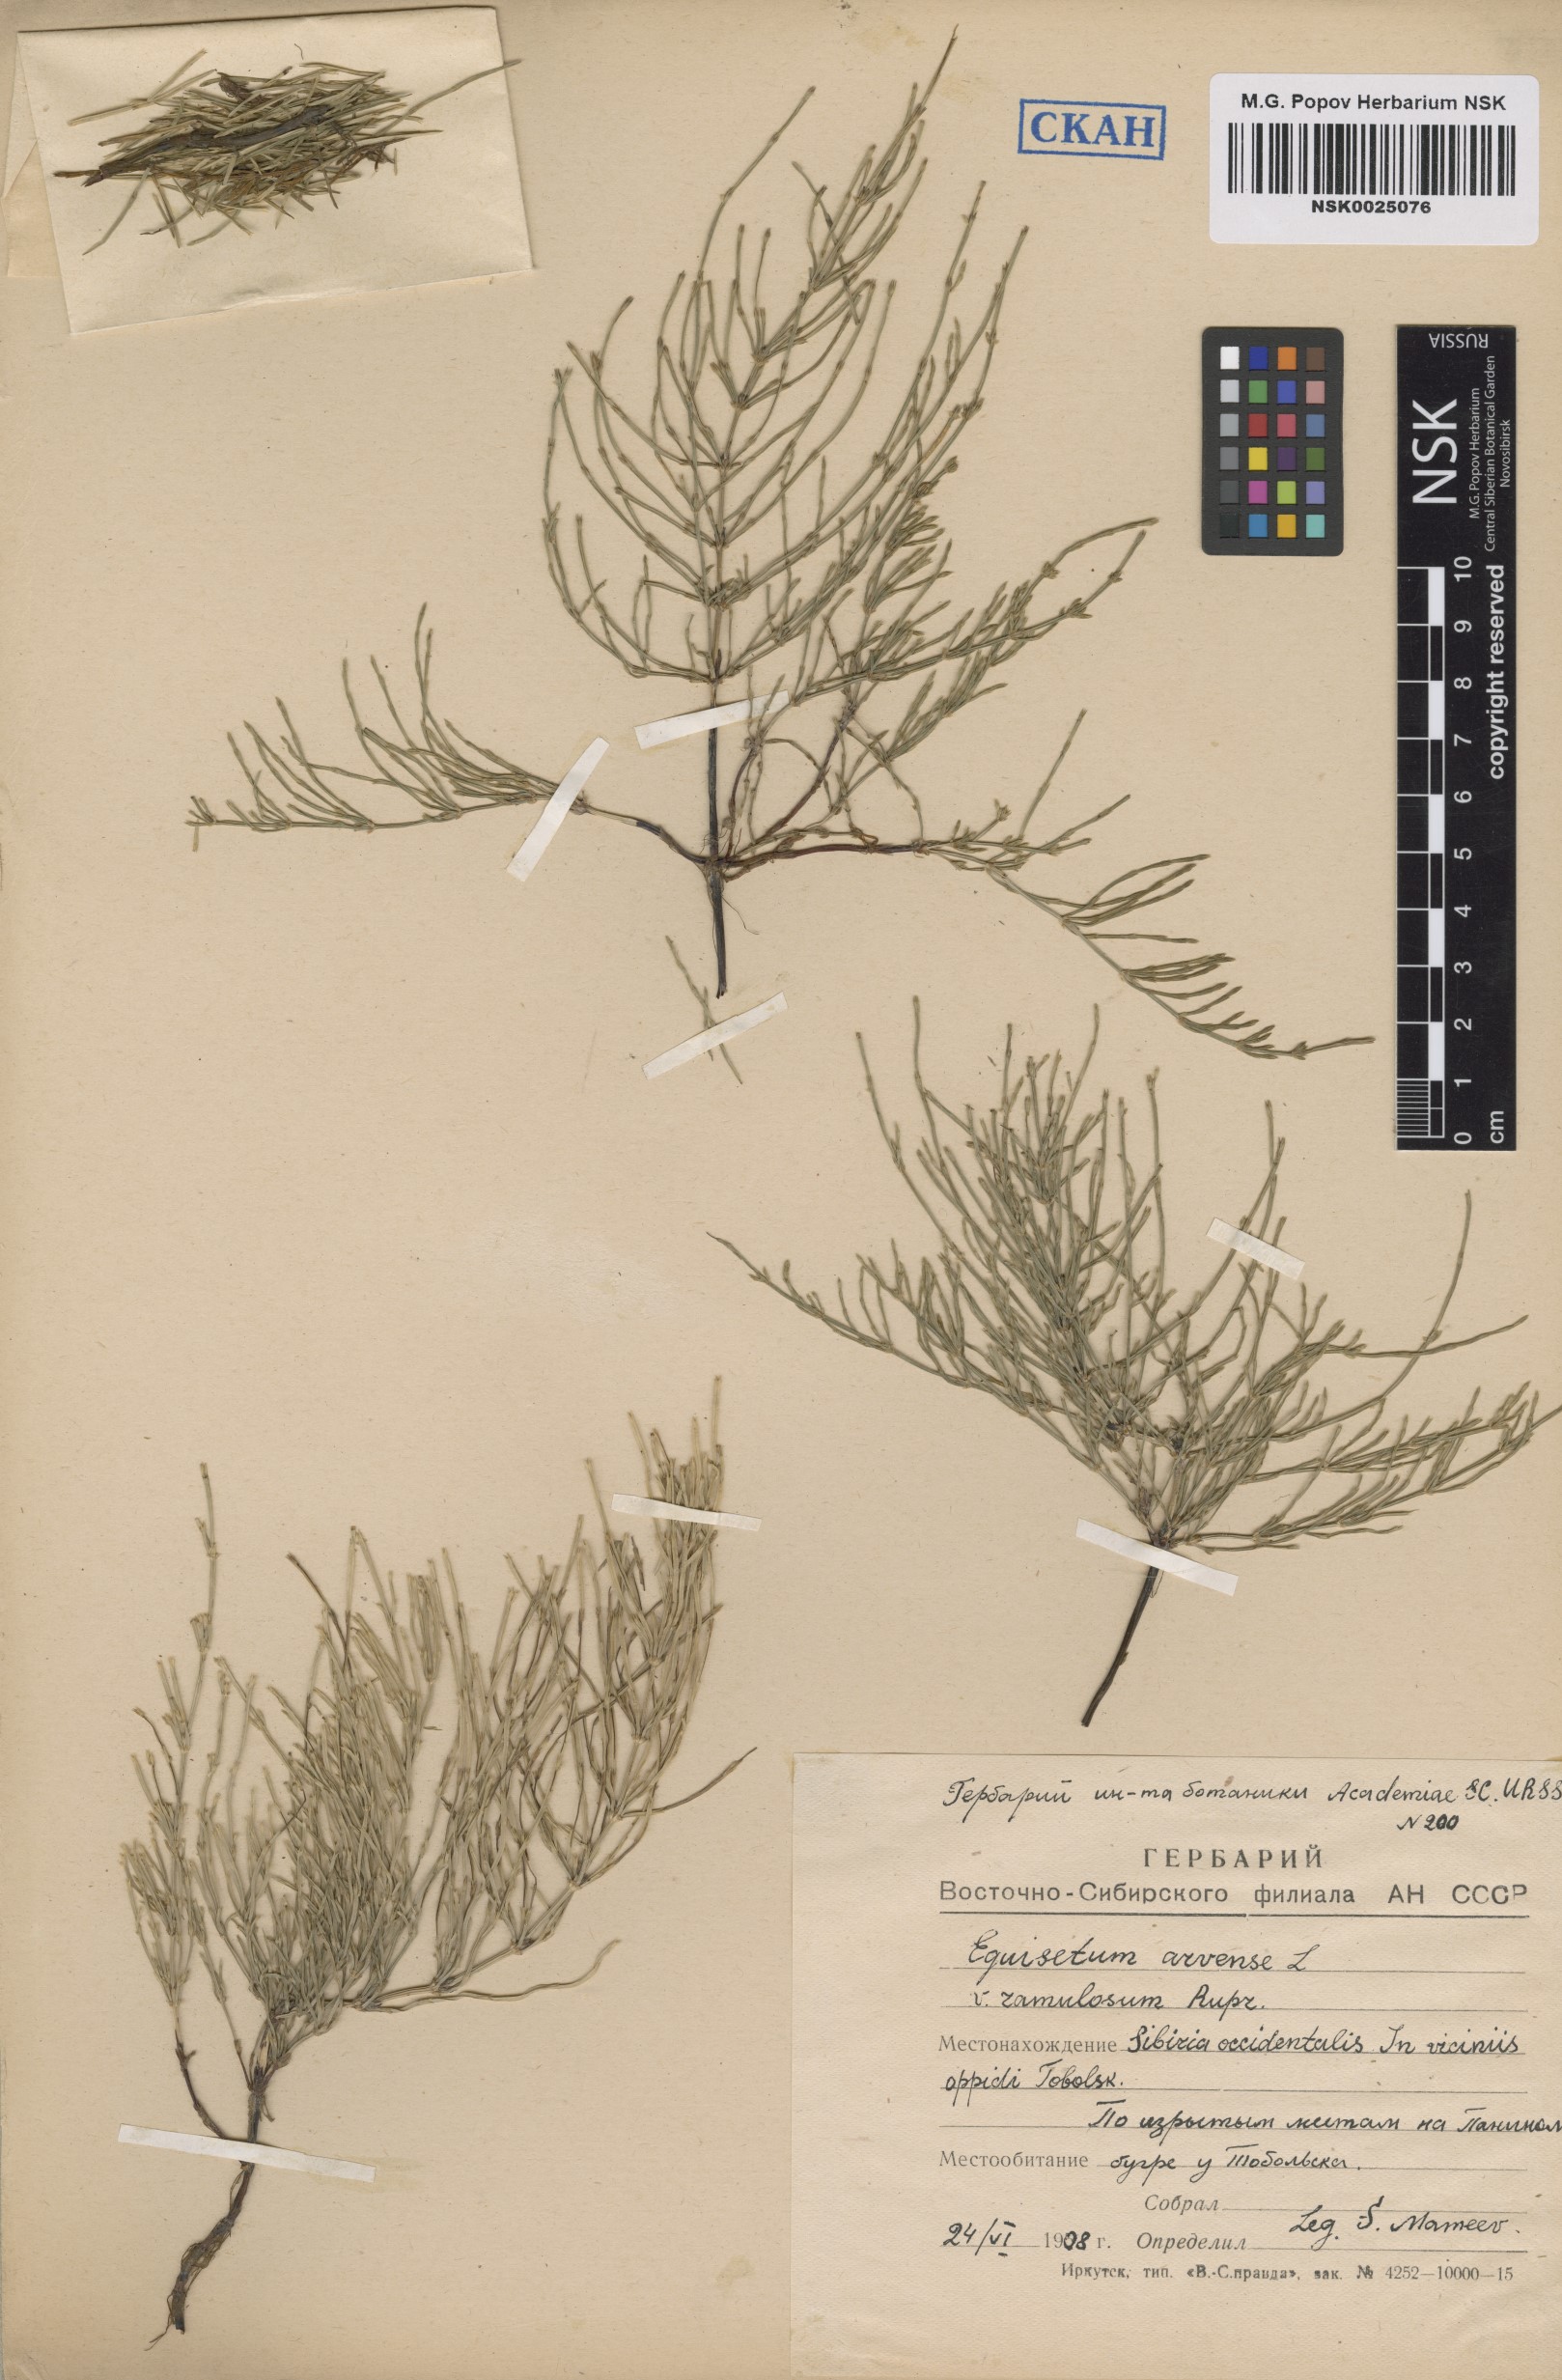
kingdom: Plantae
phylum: Tracheophyta
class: Polypodiopsida
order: Equisetales
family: Equisetaceae
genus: Equisetum
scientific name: Equisetum arvense
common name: Field horsetail
